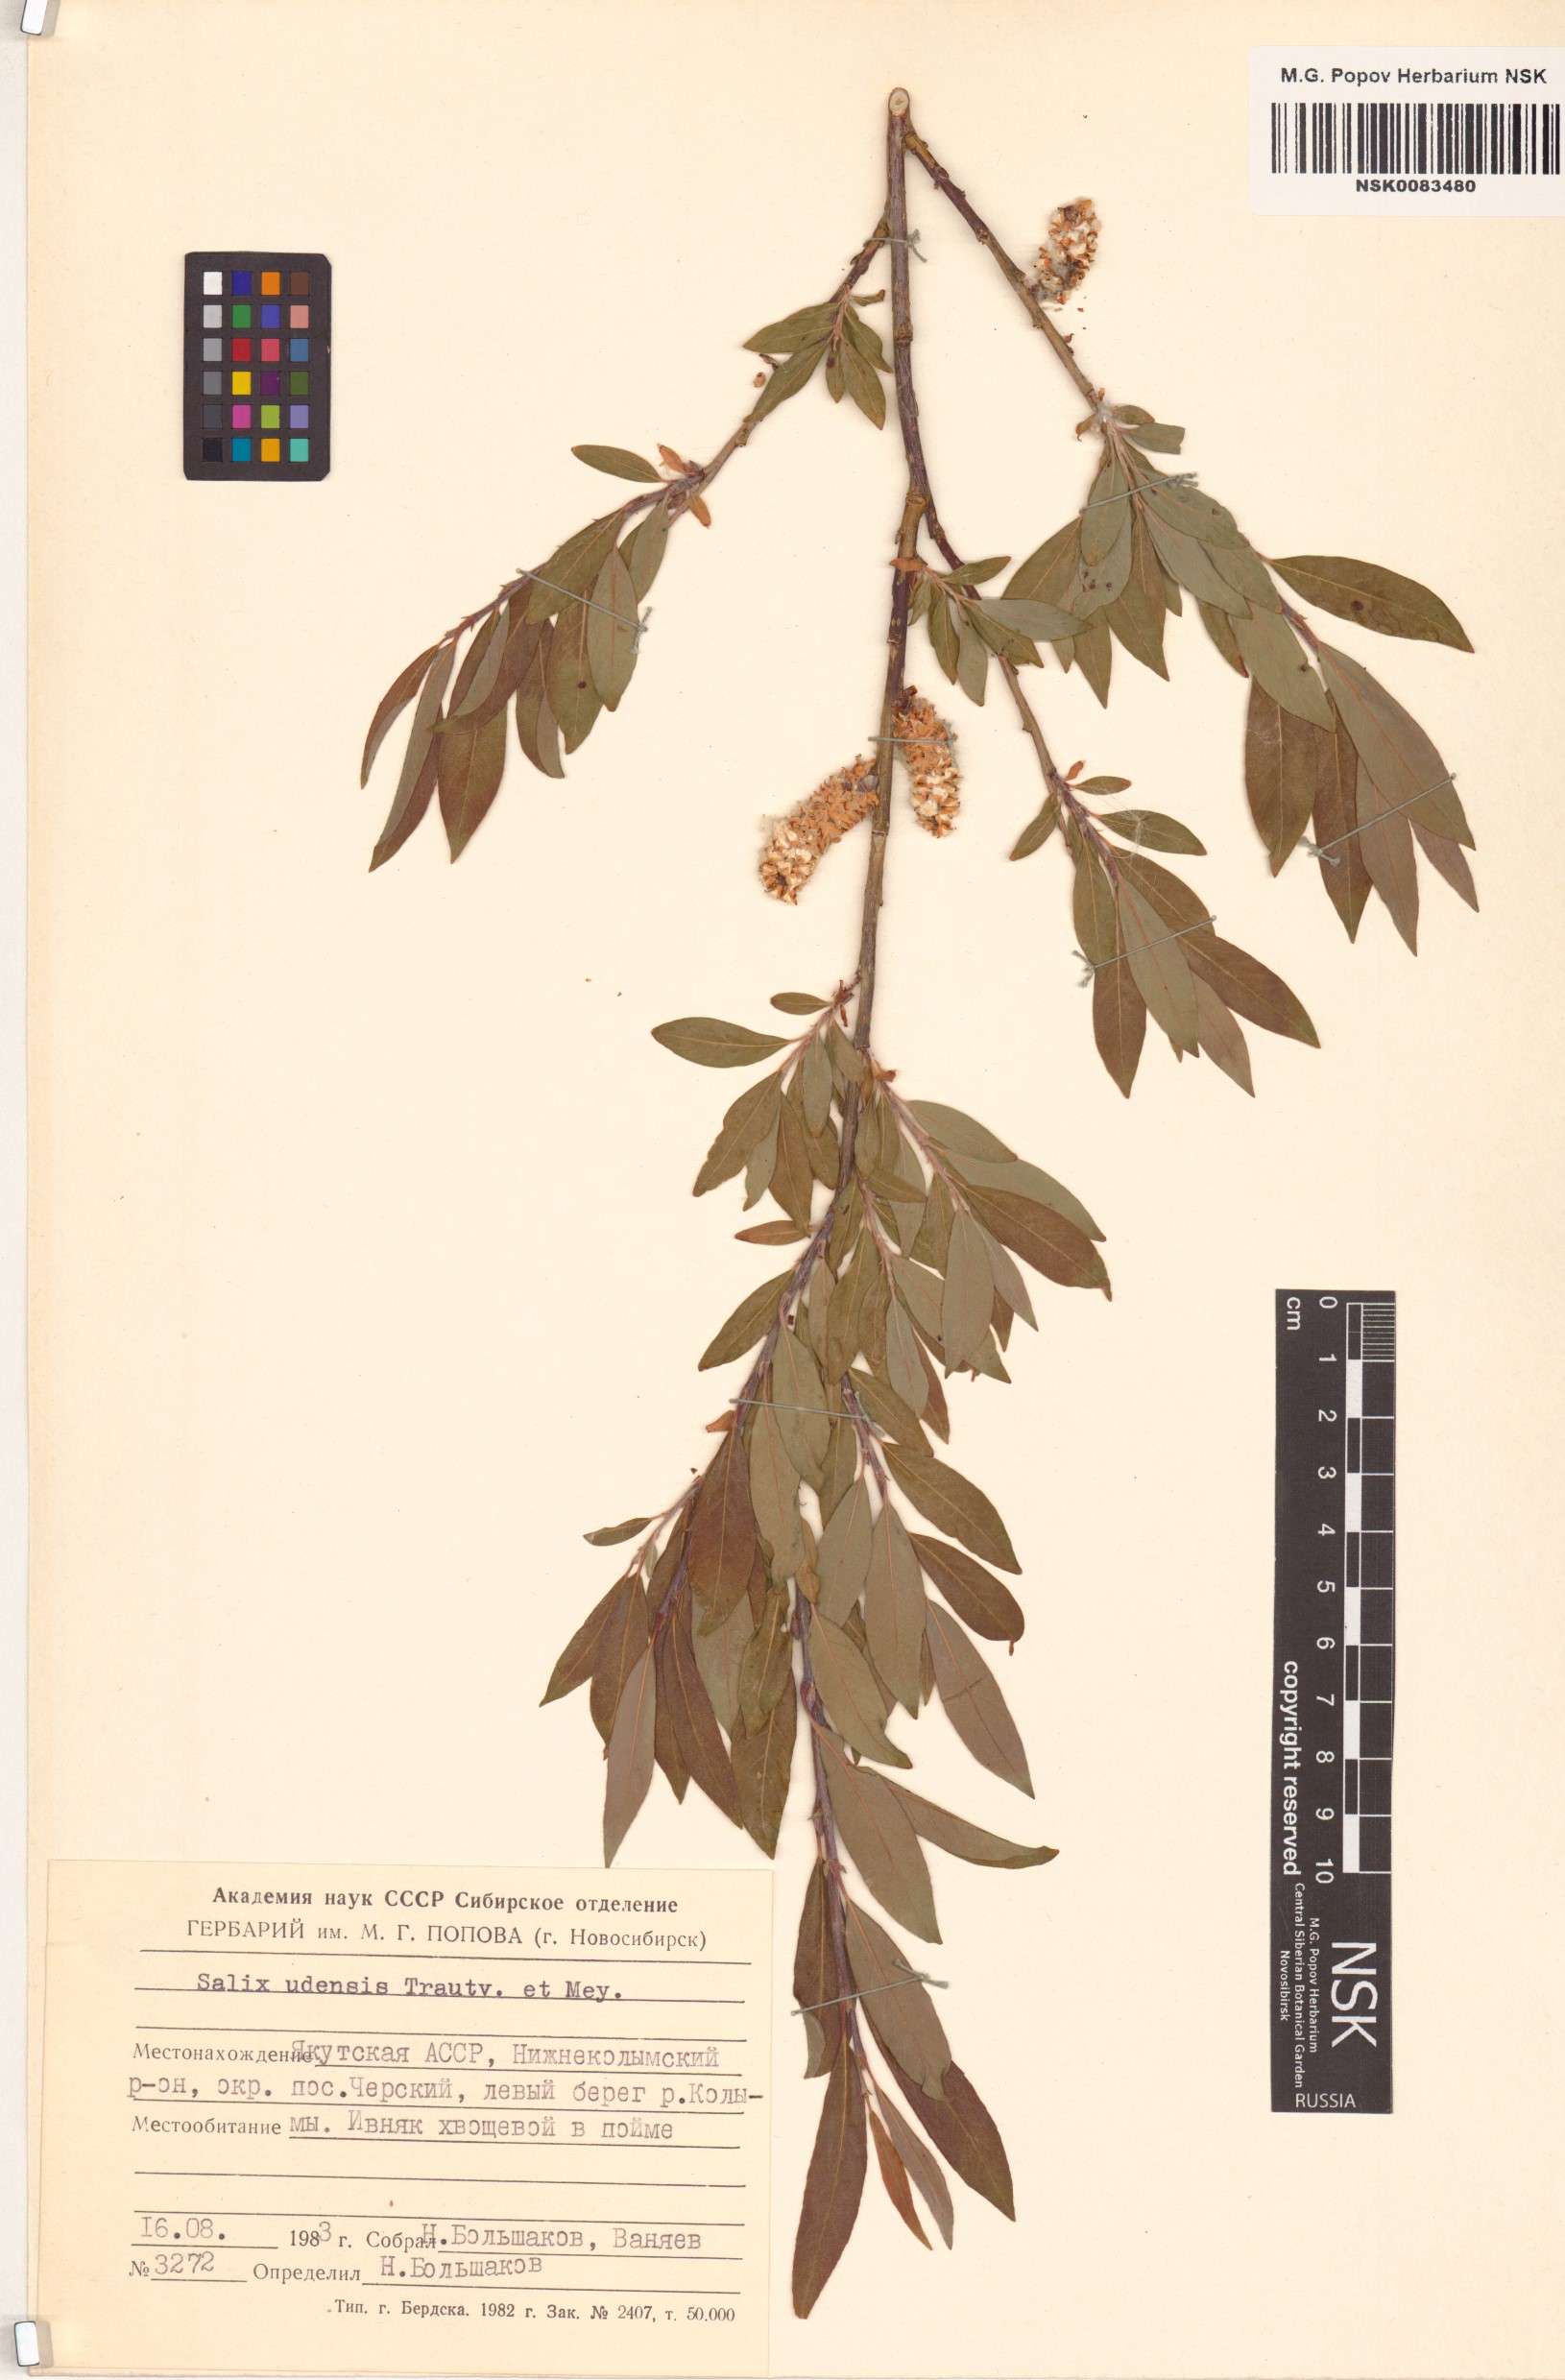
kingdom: Plantae
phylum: Tracheophyta
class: Magnoliopsida
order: Malpighiales
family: Salicaceae
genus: Salix
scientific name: Salix udensis
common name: Sachalin willow
